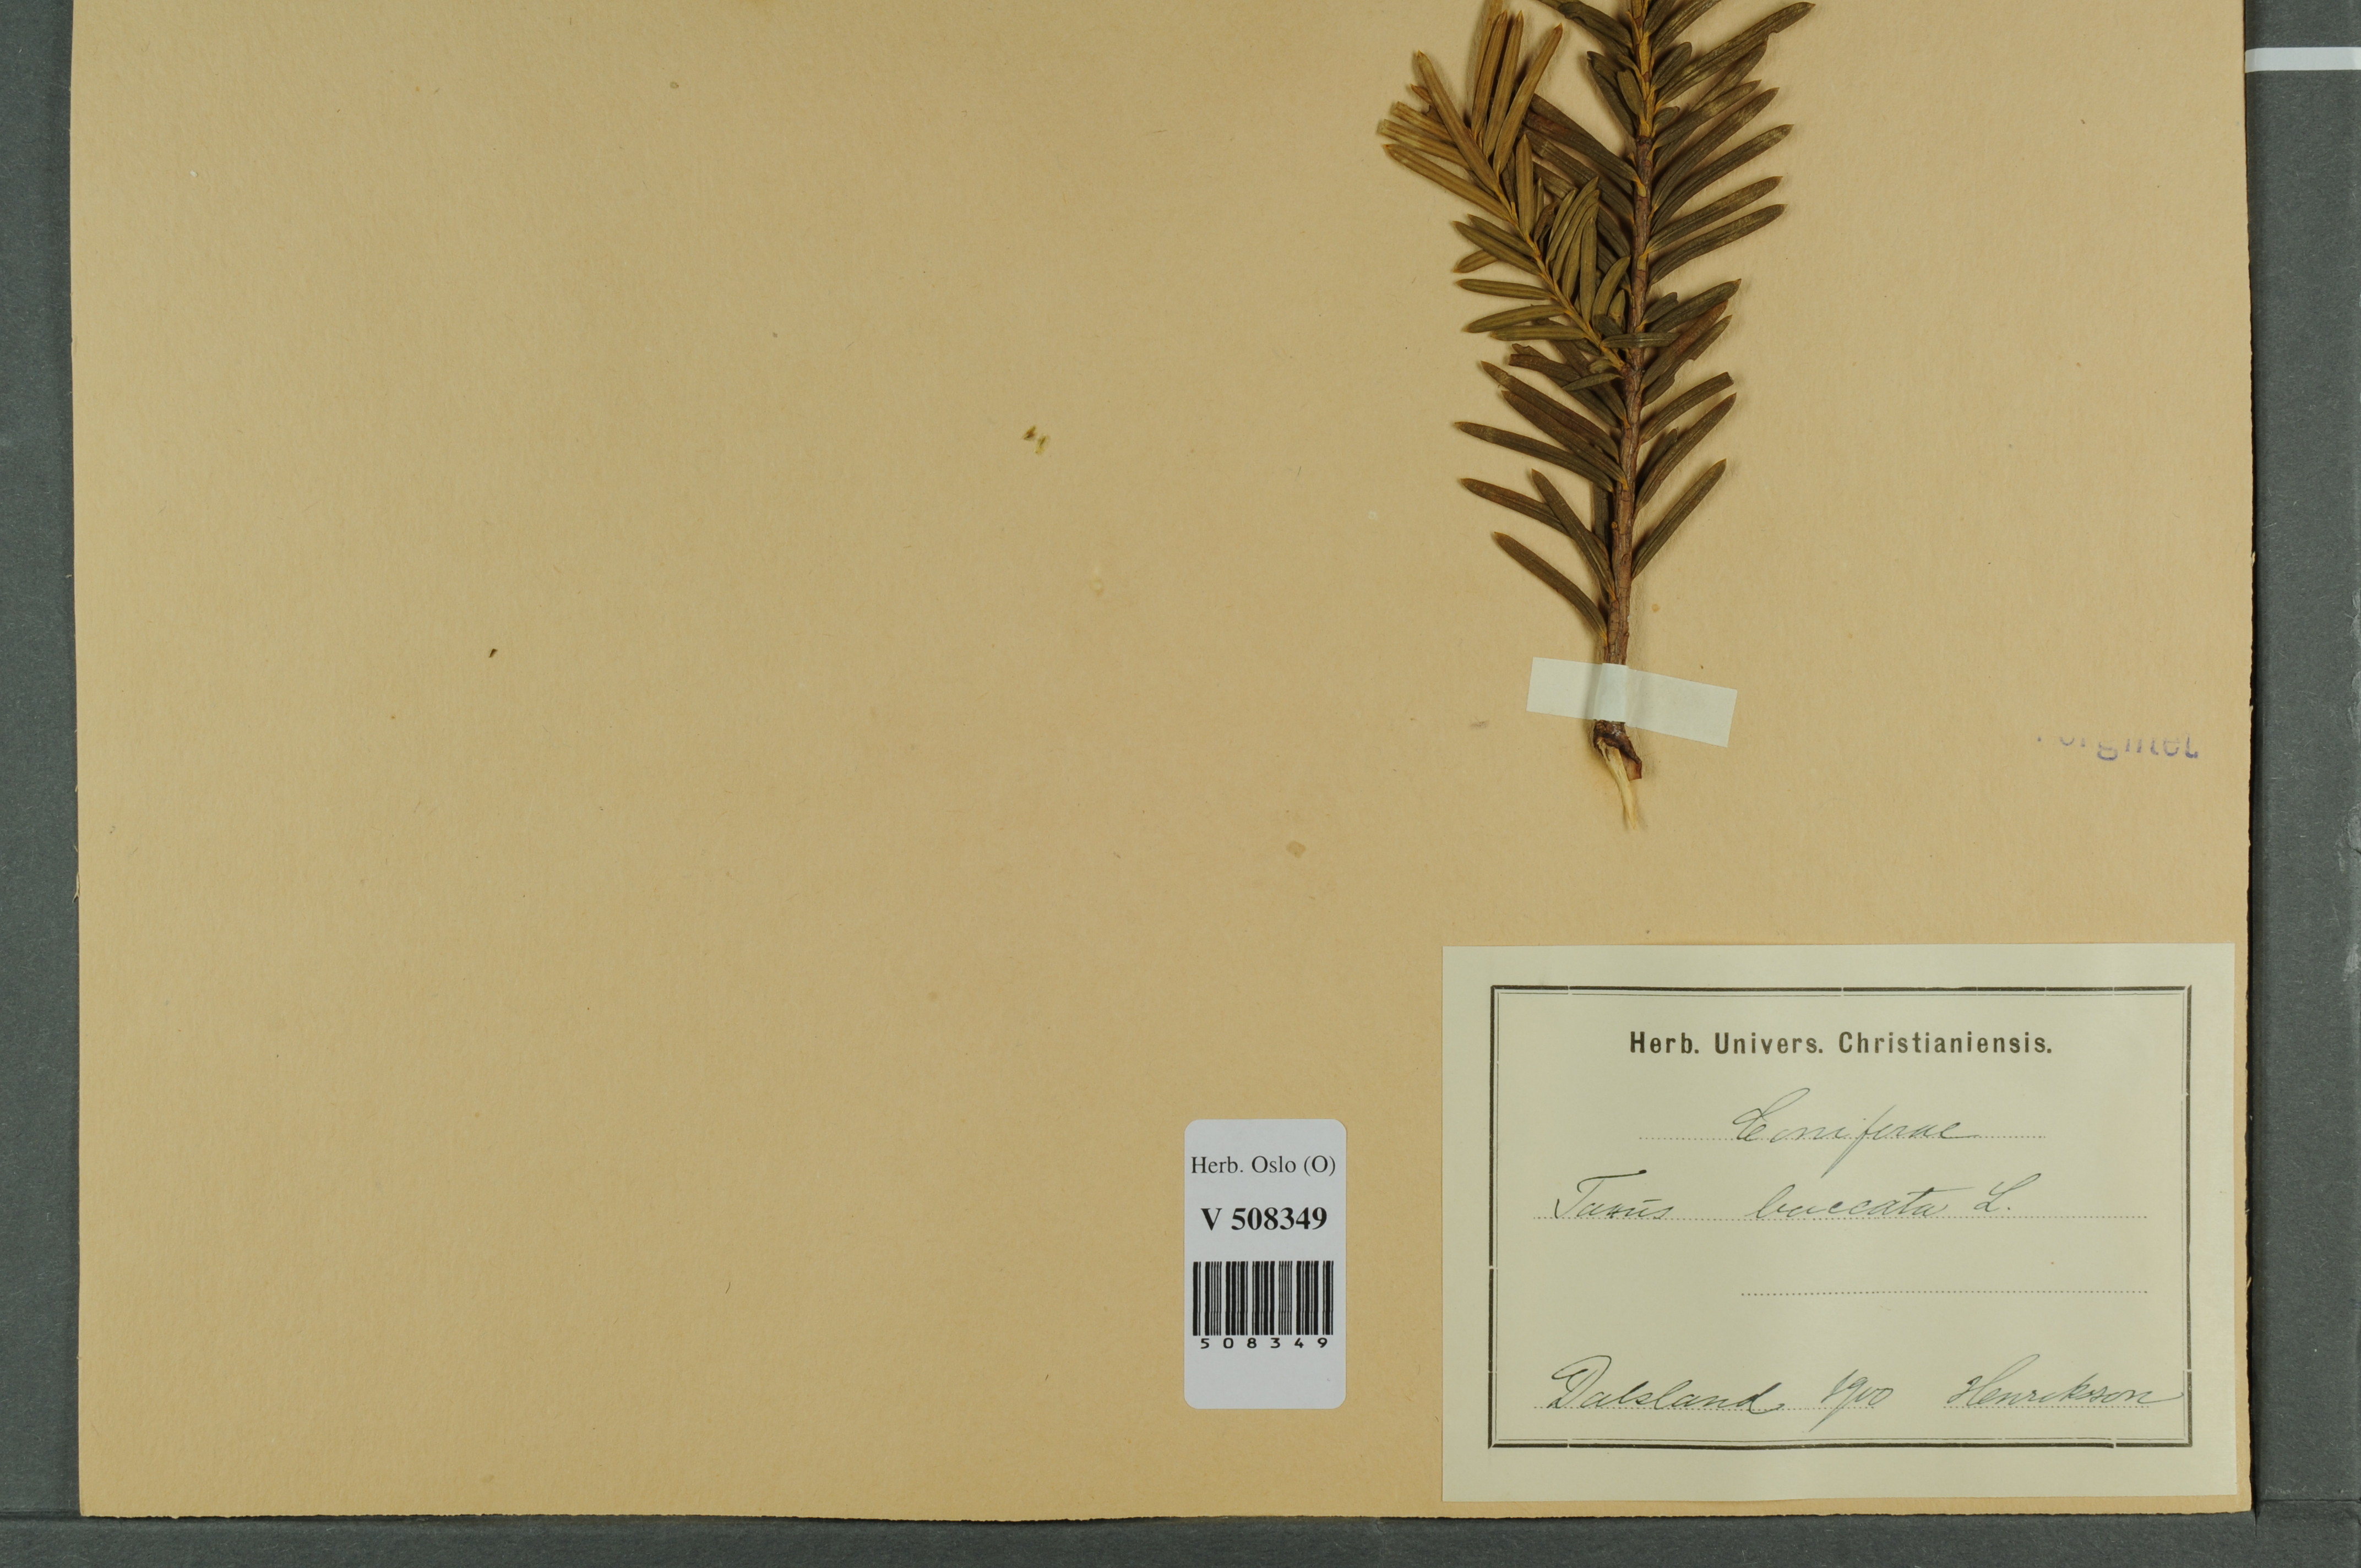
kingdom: Plantae
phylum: Tracheophyta
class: Pinopsida
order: Pinales
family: Taxaceae
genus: Taxus
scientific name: Taxus baccata
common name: Yew
